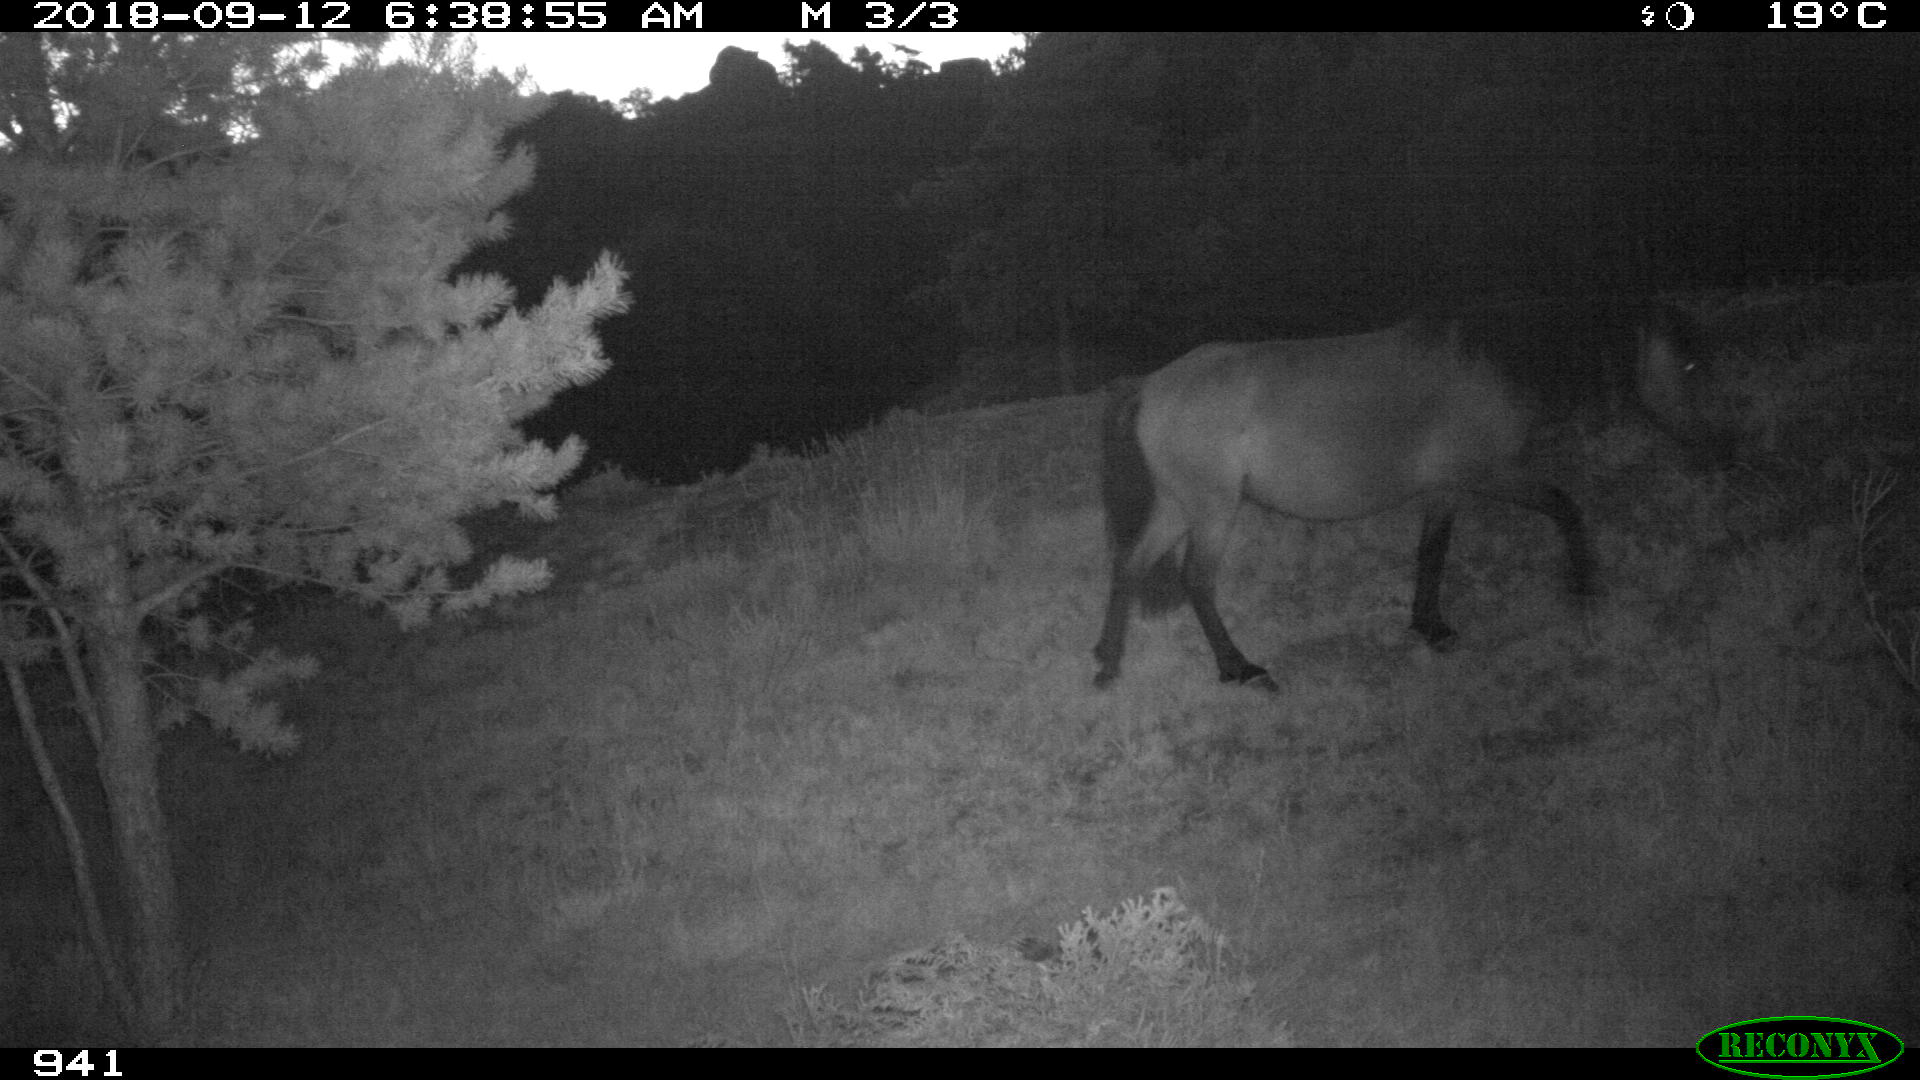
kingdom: Animalia
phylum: Chordata
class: Mammalia
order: Perissodactyla
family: Equidae
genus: Equus
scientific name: Equus caballus
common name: Horse
